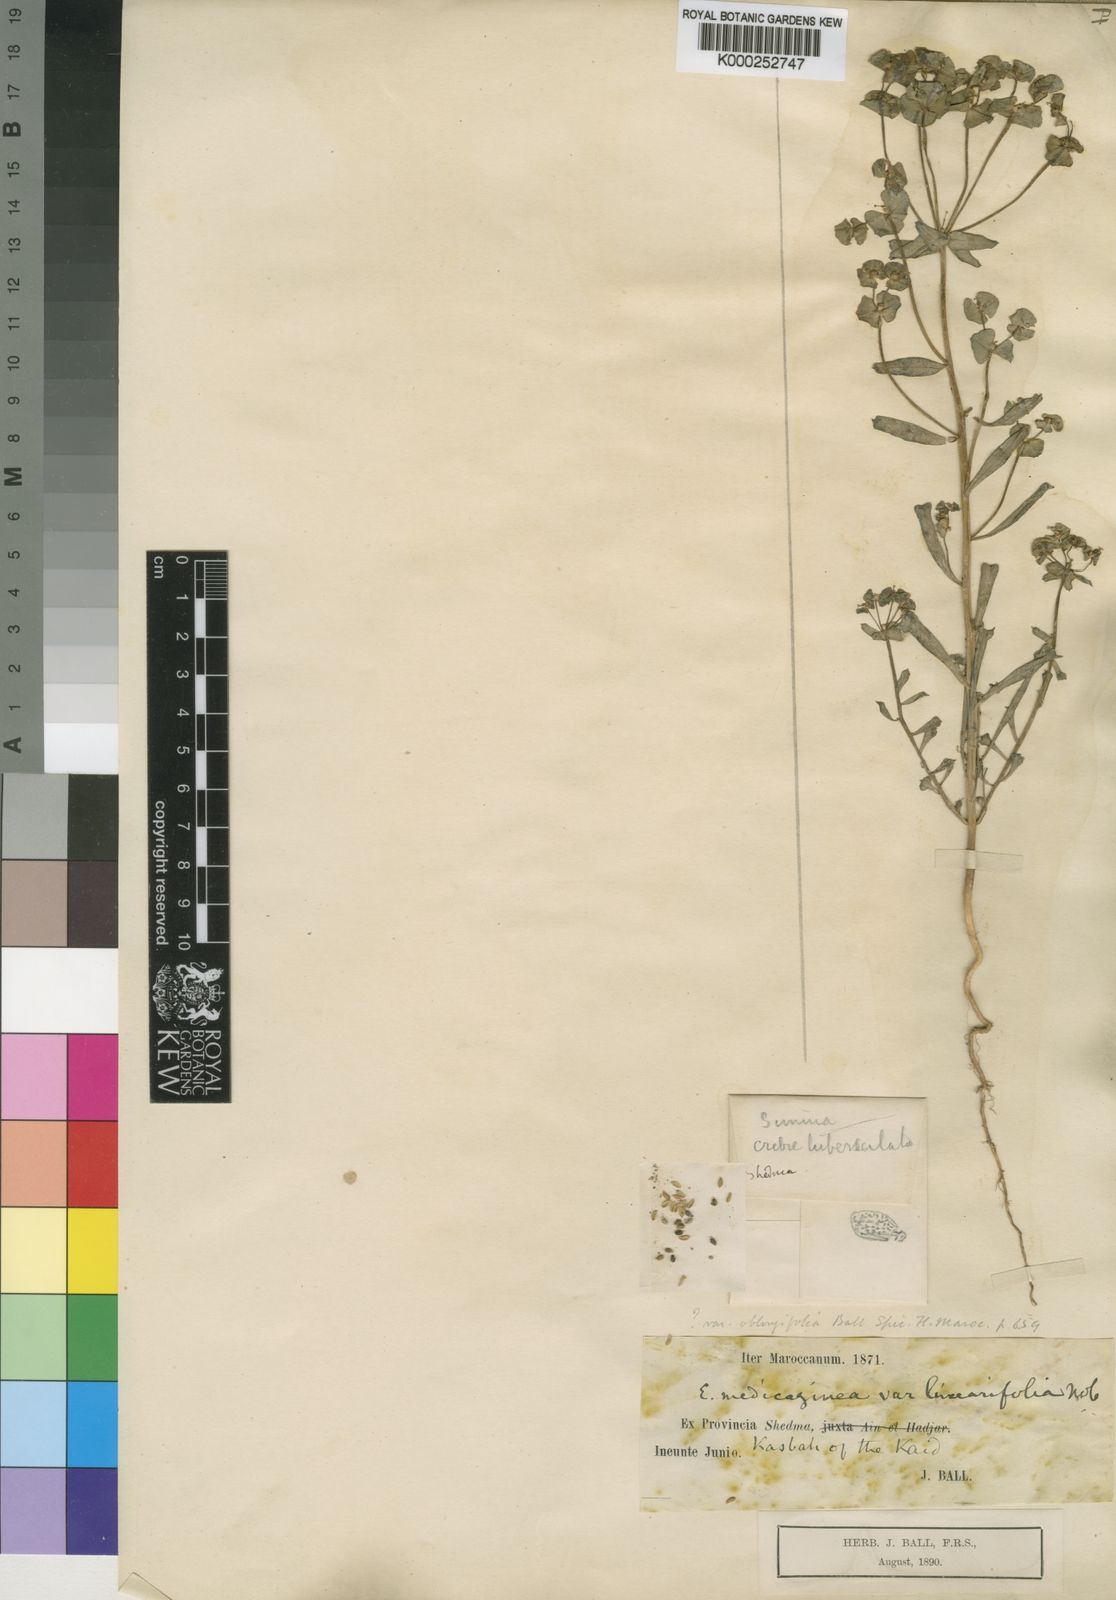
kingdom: Plantae
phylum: Tracheophyta
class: Magnoliopsida
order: Malpighiales
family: Euphorbiaceae
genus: Euphorbia
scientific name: Euphorbia medicaginea
